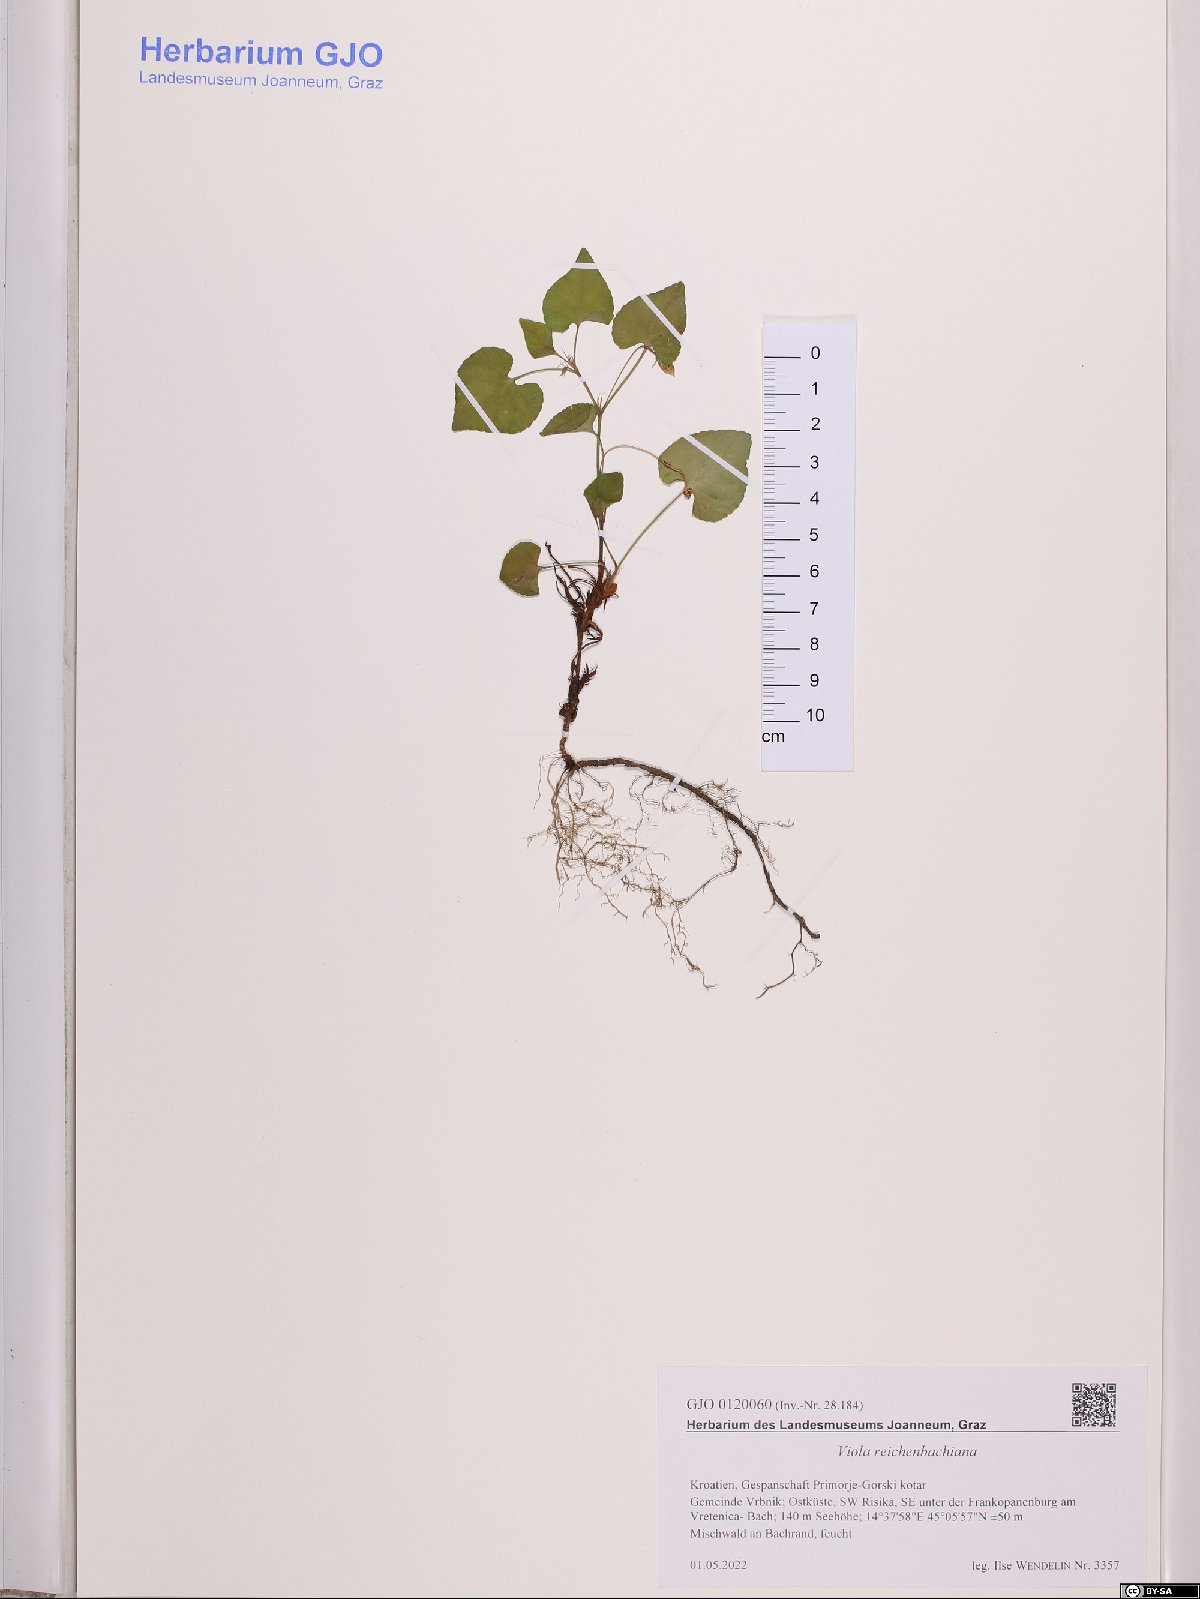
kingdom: Plantae
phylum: Tracheophyta
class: Magnoliopsida
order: Malpighiales
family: Violaceae
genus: Viola
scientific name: Viola reichenbachiana
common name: Early dog-violet
